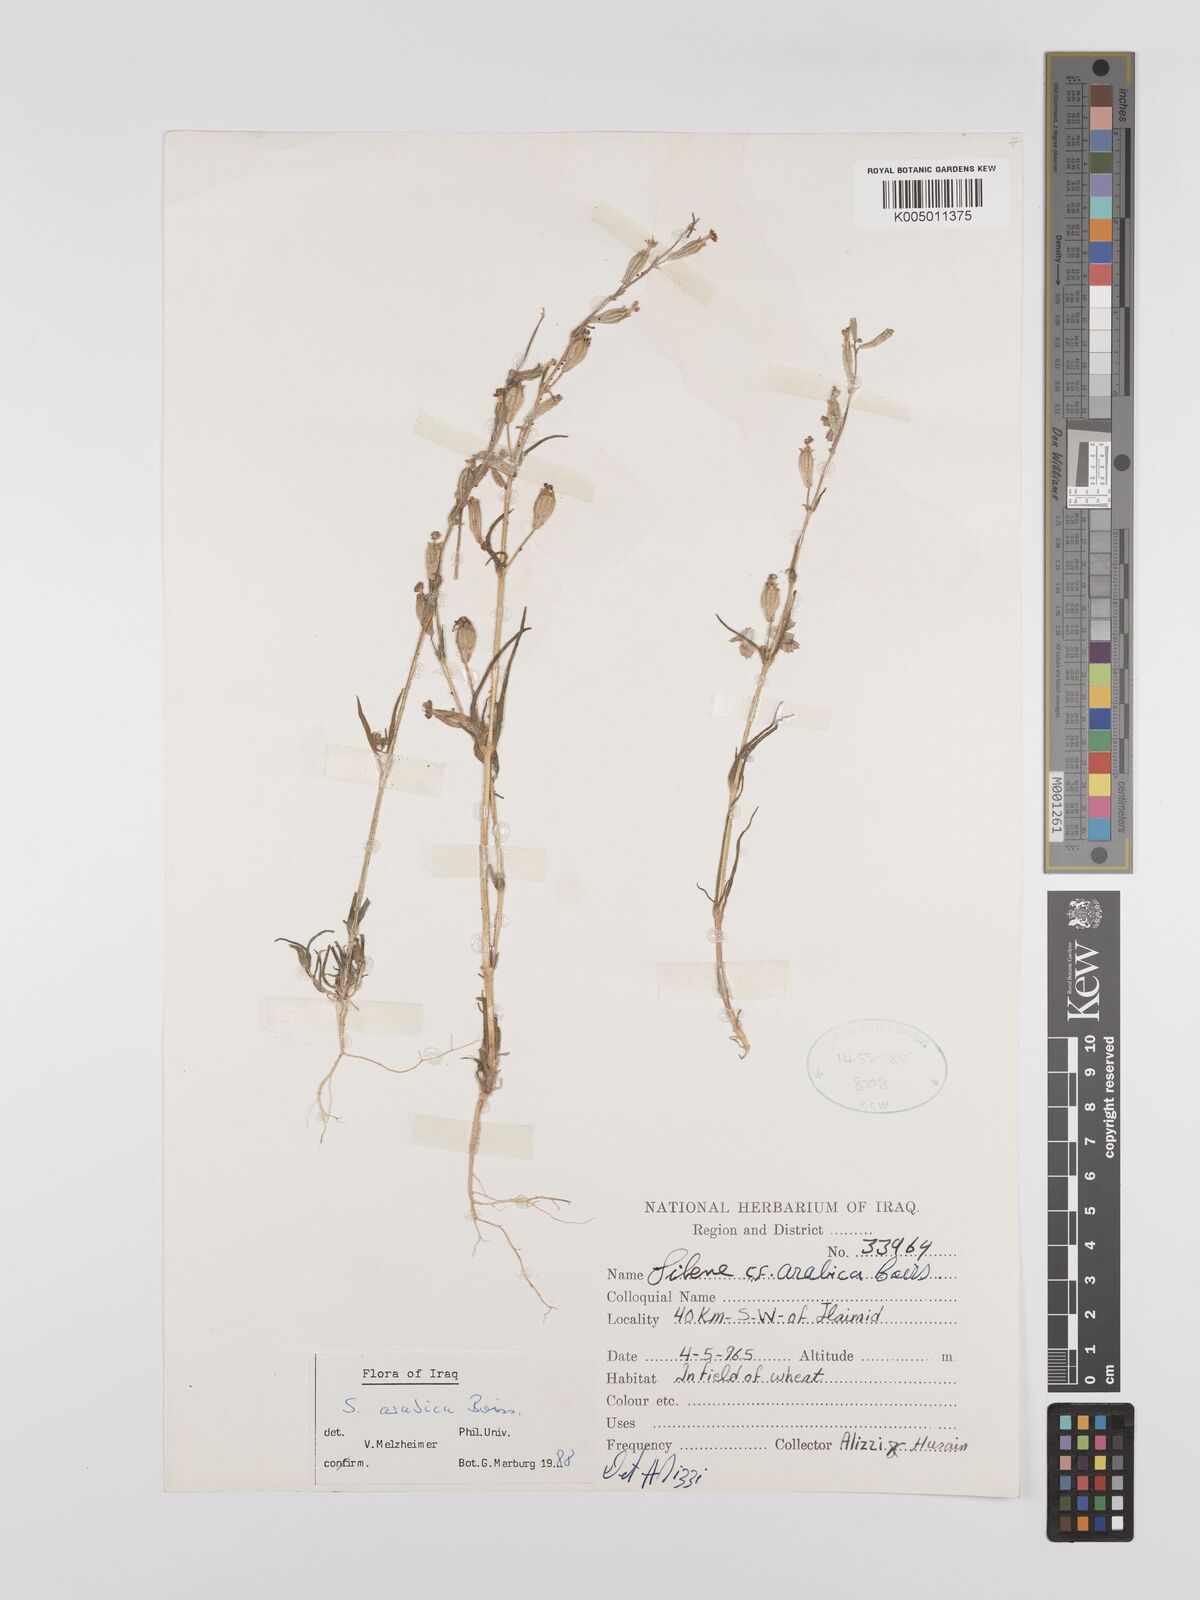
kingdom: Plantae
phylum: Tracheophyta
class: Magnoliopsida
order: Caryophyllales
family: Caryophyllaceae
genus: Silene
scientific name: Silene arabica
